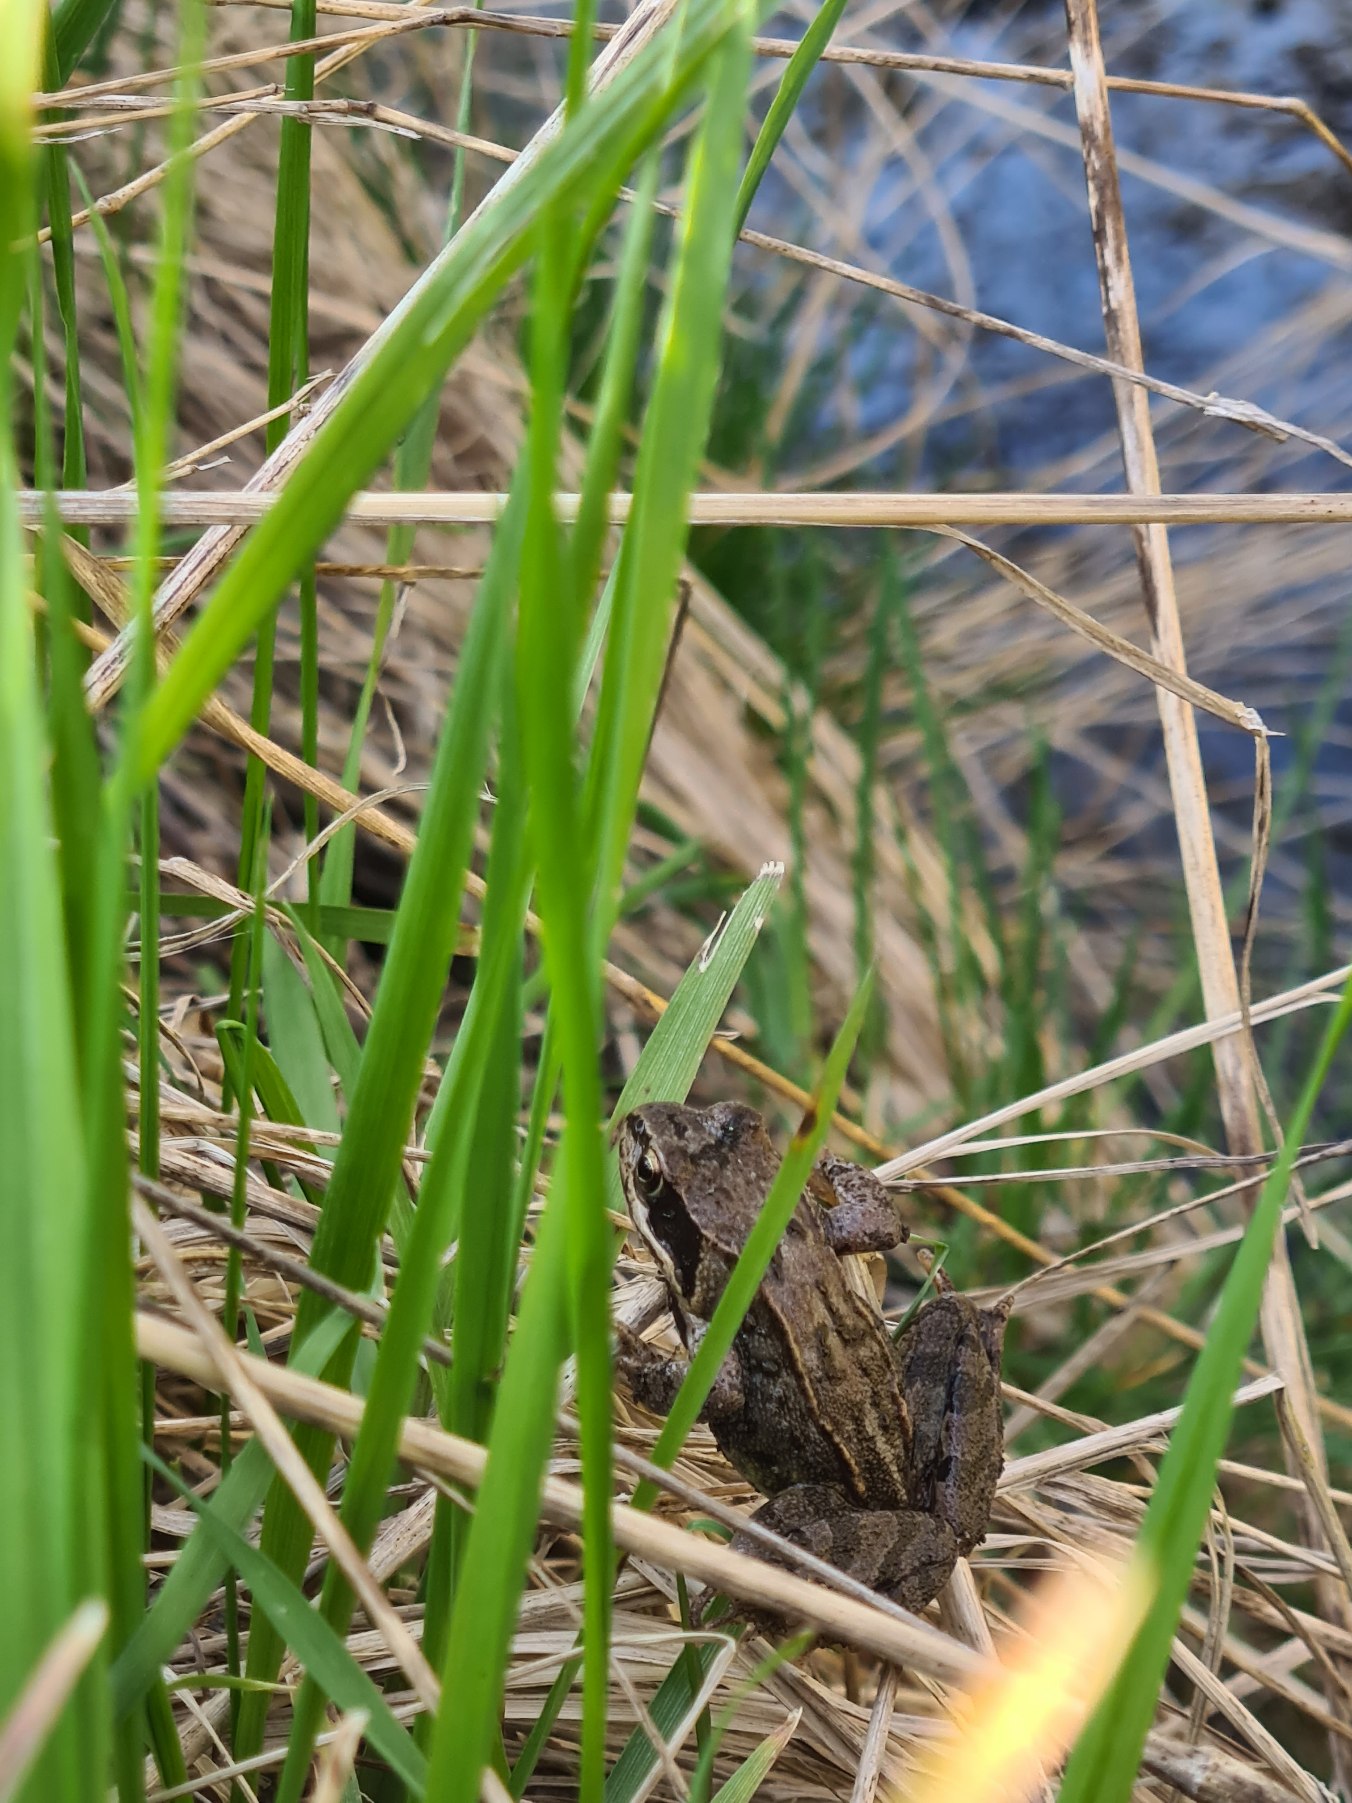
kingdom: Animalia
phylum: Chordata
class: Amphibia
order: Anura
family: Ranidae
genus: Rana
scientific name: Rana temporaria
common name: Butsnudet frø
